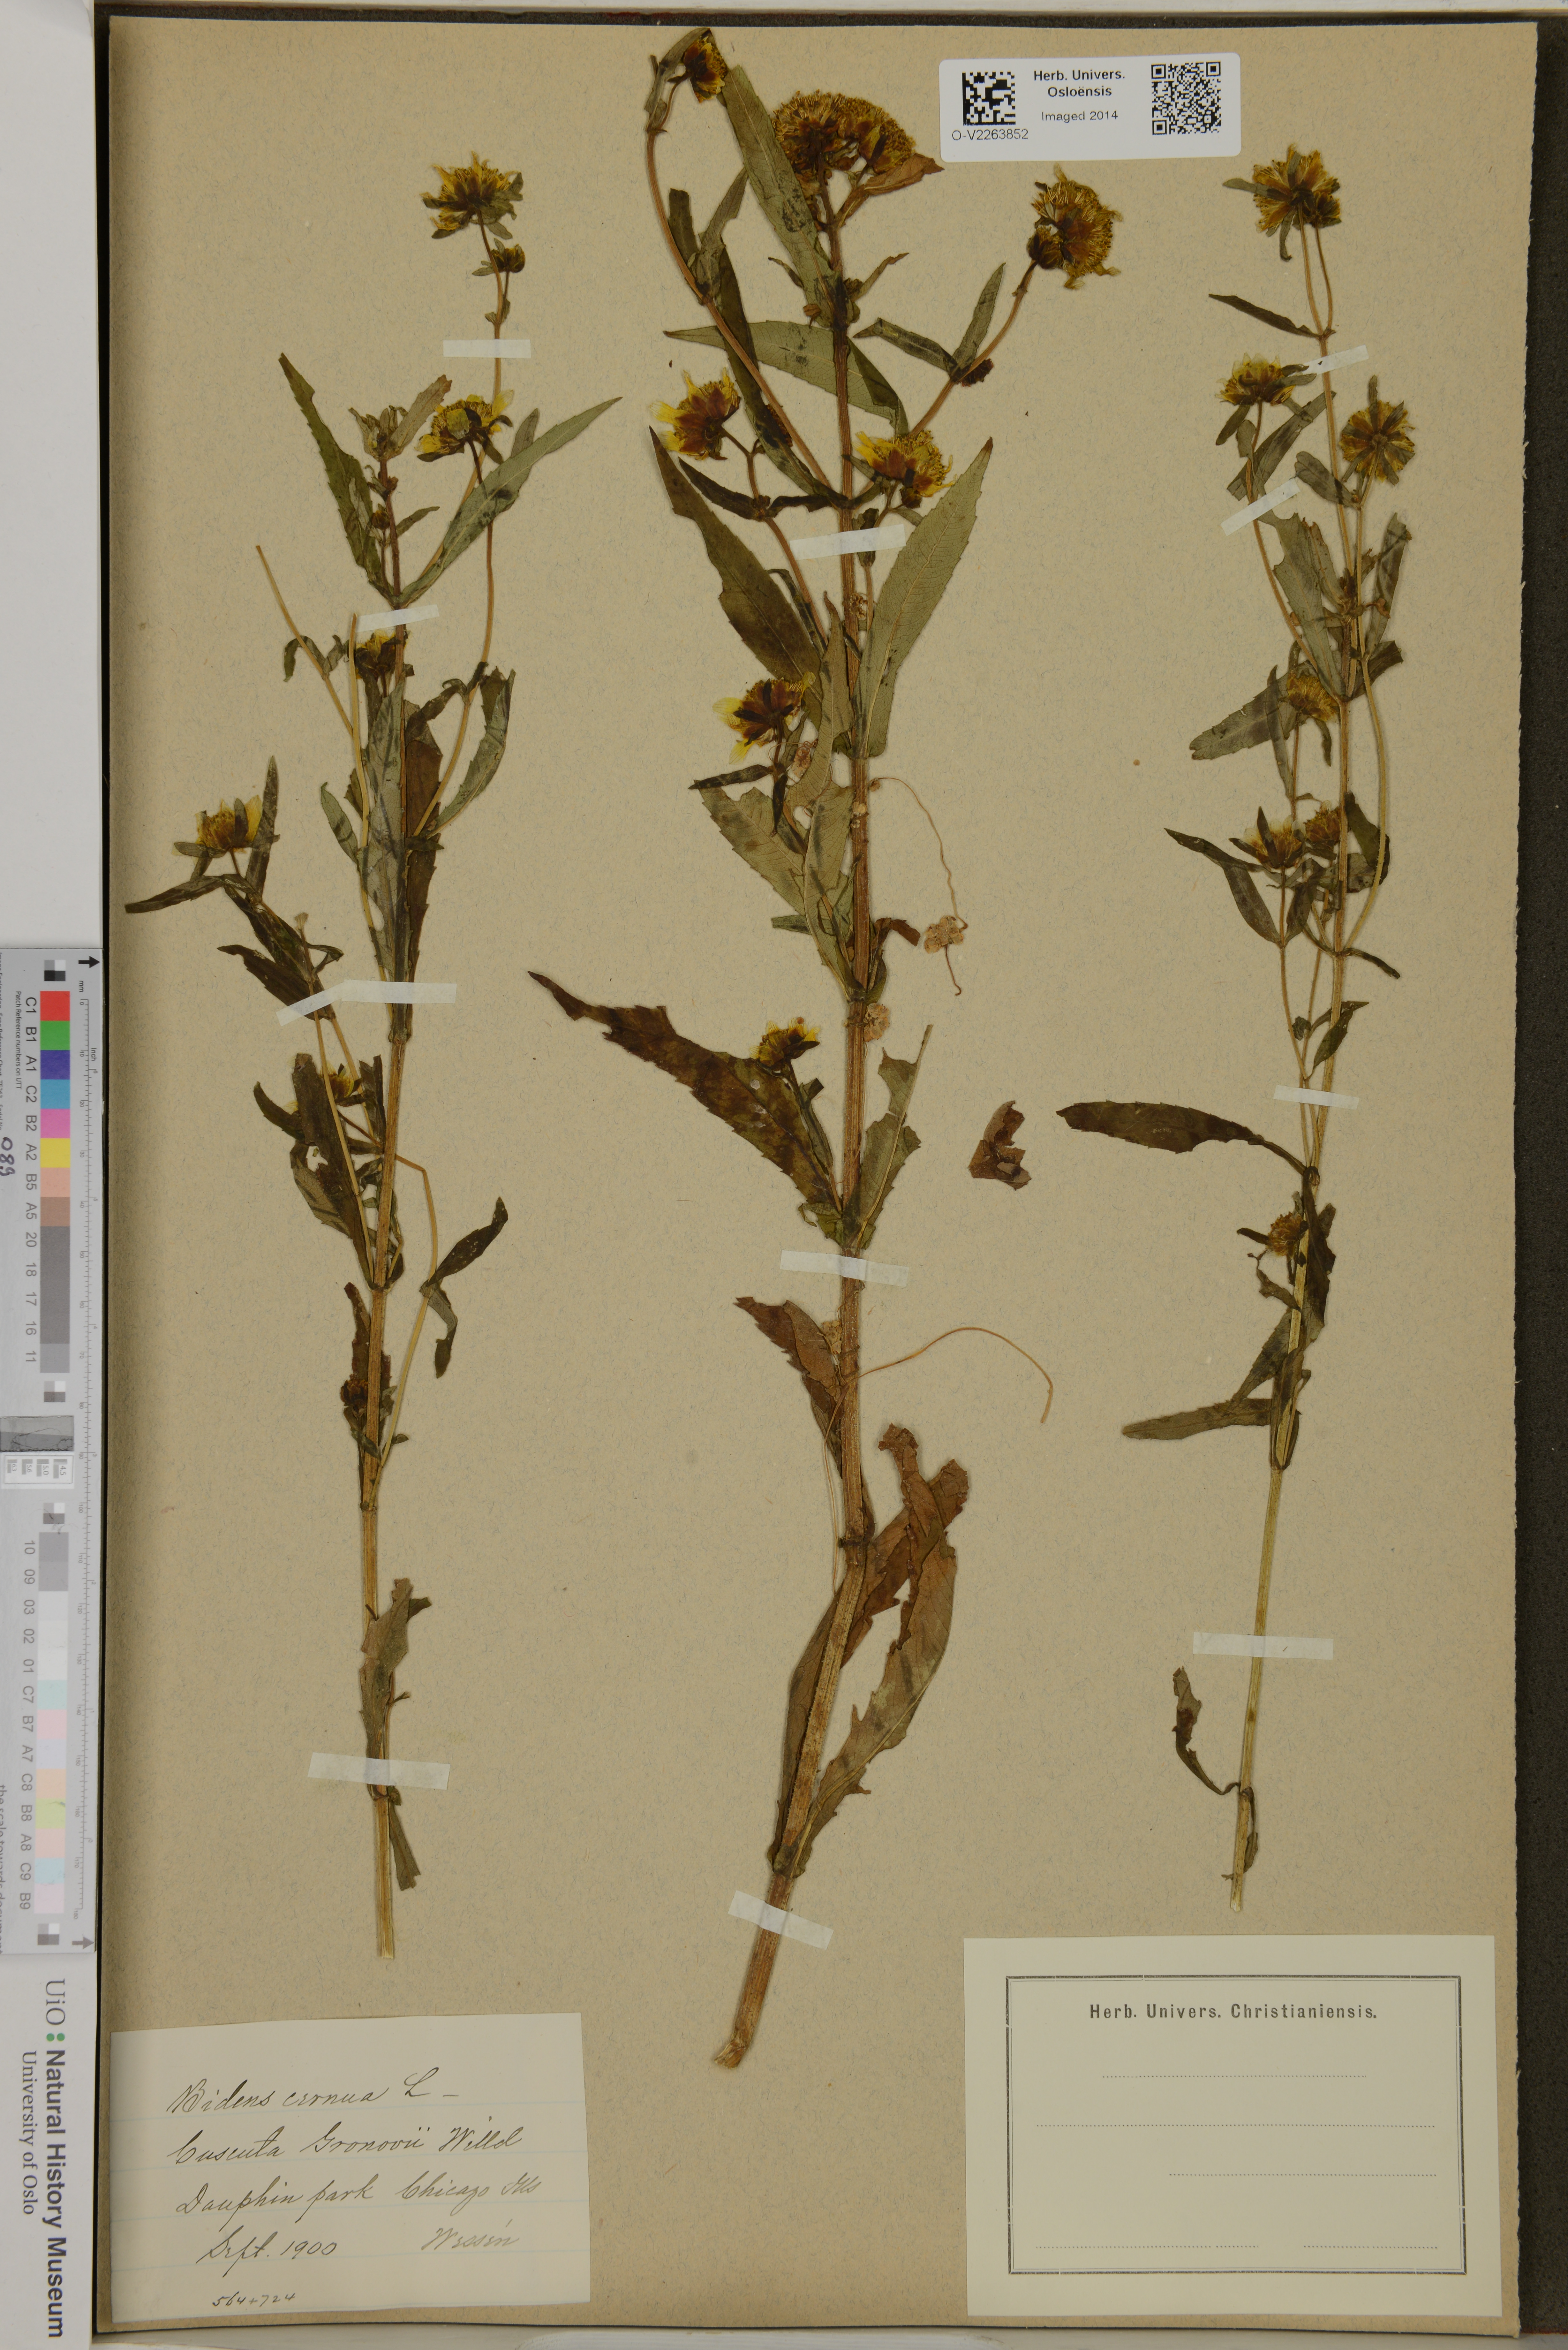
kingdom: Plantae
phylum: Tracheophyta
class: Magnoliopsida
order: Asterales
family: Asteraceae
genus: Bidens
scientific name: Bidens cernua
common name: Nodding bur-marigold
